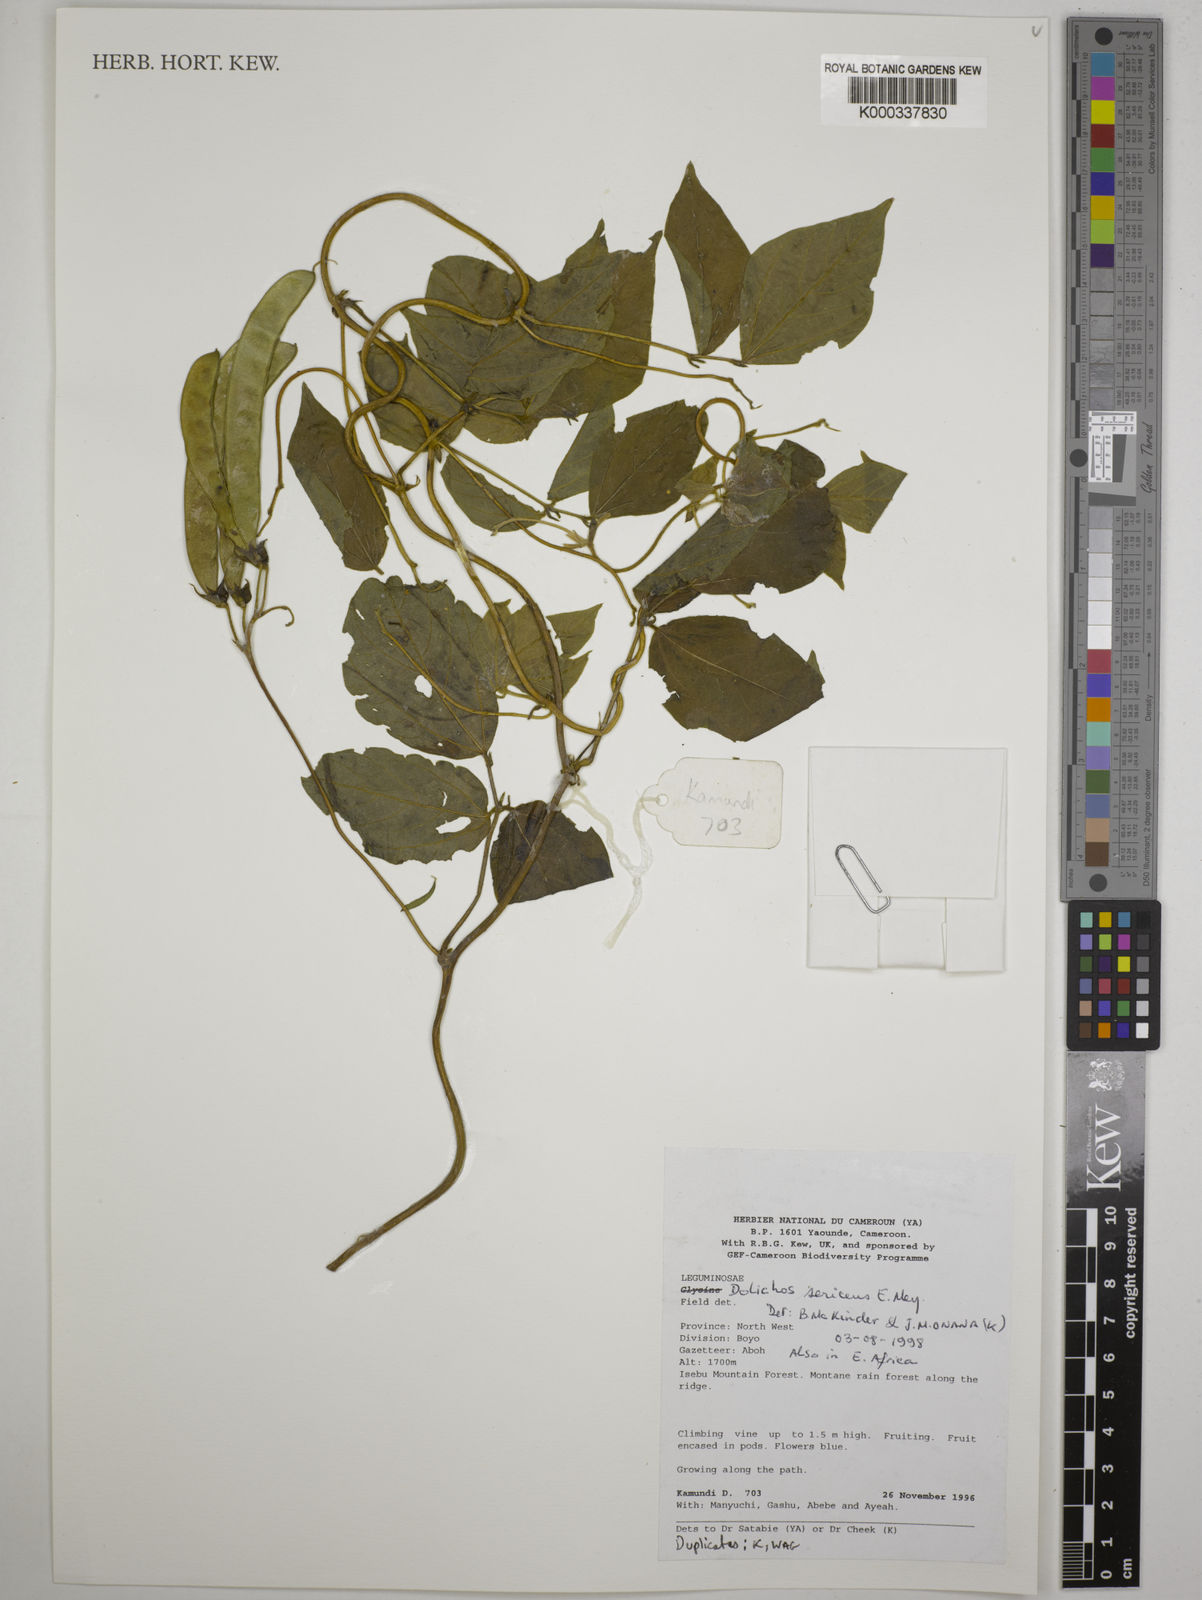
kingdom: Plantae
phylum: Tracheophyta
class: Magnoliopsida
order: Fabales
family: Fabaceae
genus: Dolichos
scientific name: Dolichos sericeus
